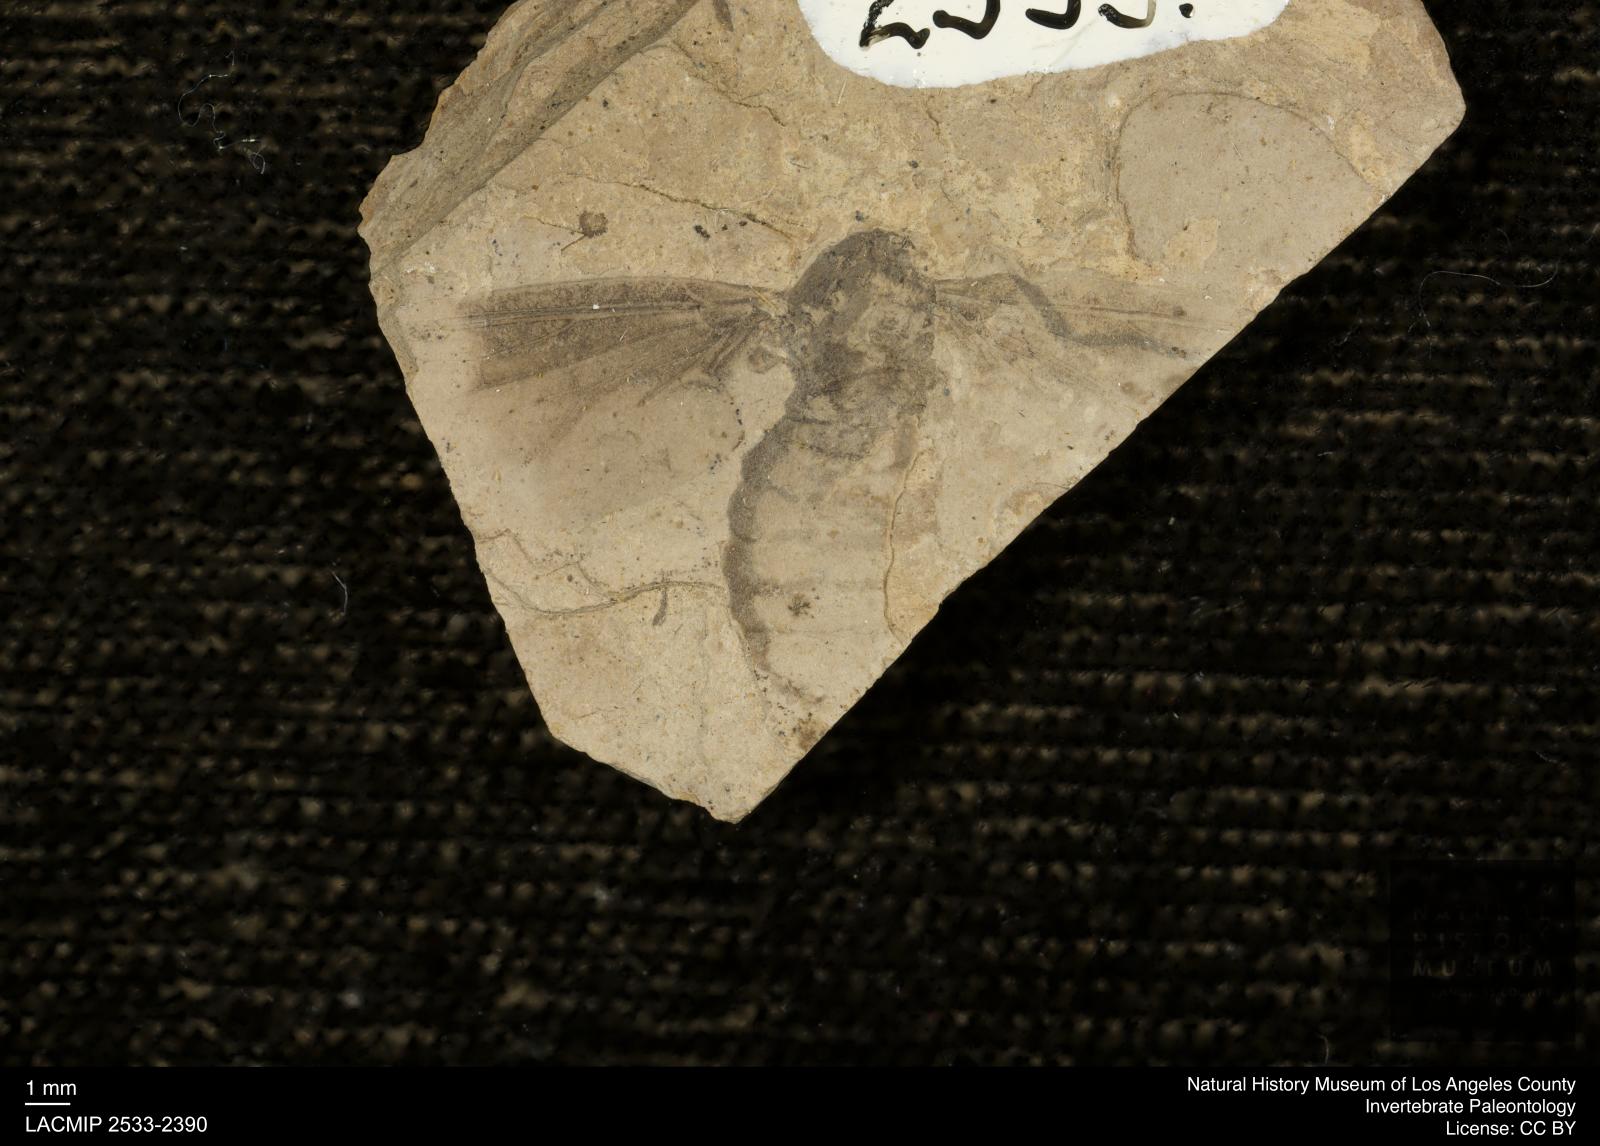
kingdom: Animalia
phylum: Arthropoda
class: Insecta
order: Diptera
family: Bibionidae
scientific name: Bibionidae
